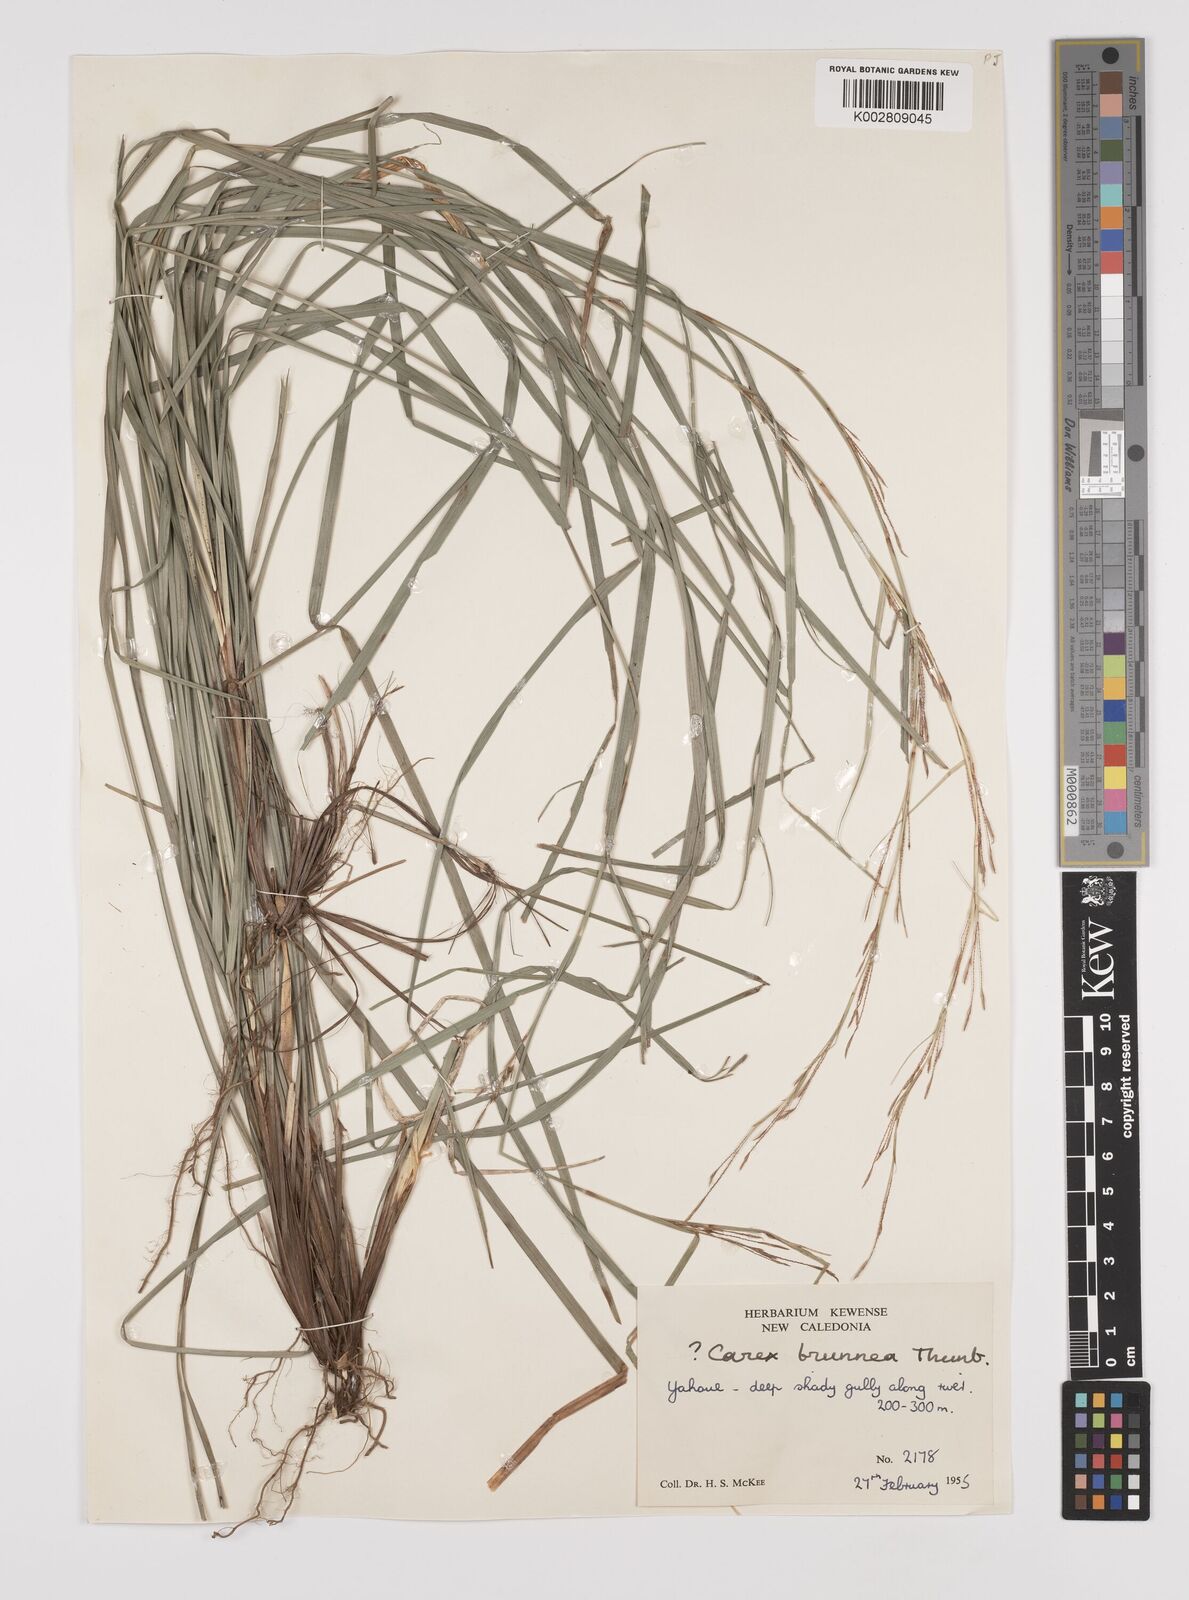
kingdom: Plantae
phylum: Tracheophyta
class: Liliopsida
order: Poales
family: Cyperaceae
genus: Carex
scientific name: Carex brunnea
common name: Greater brown sedge
